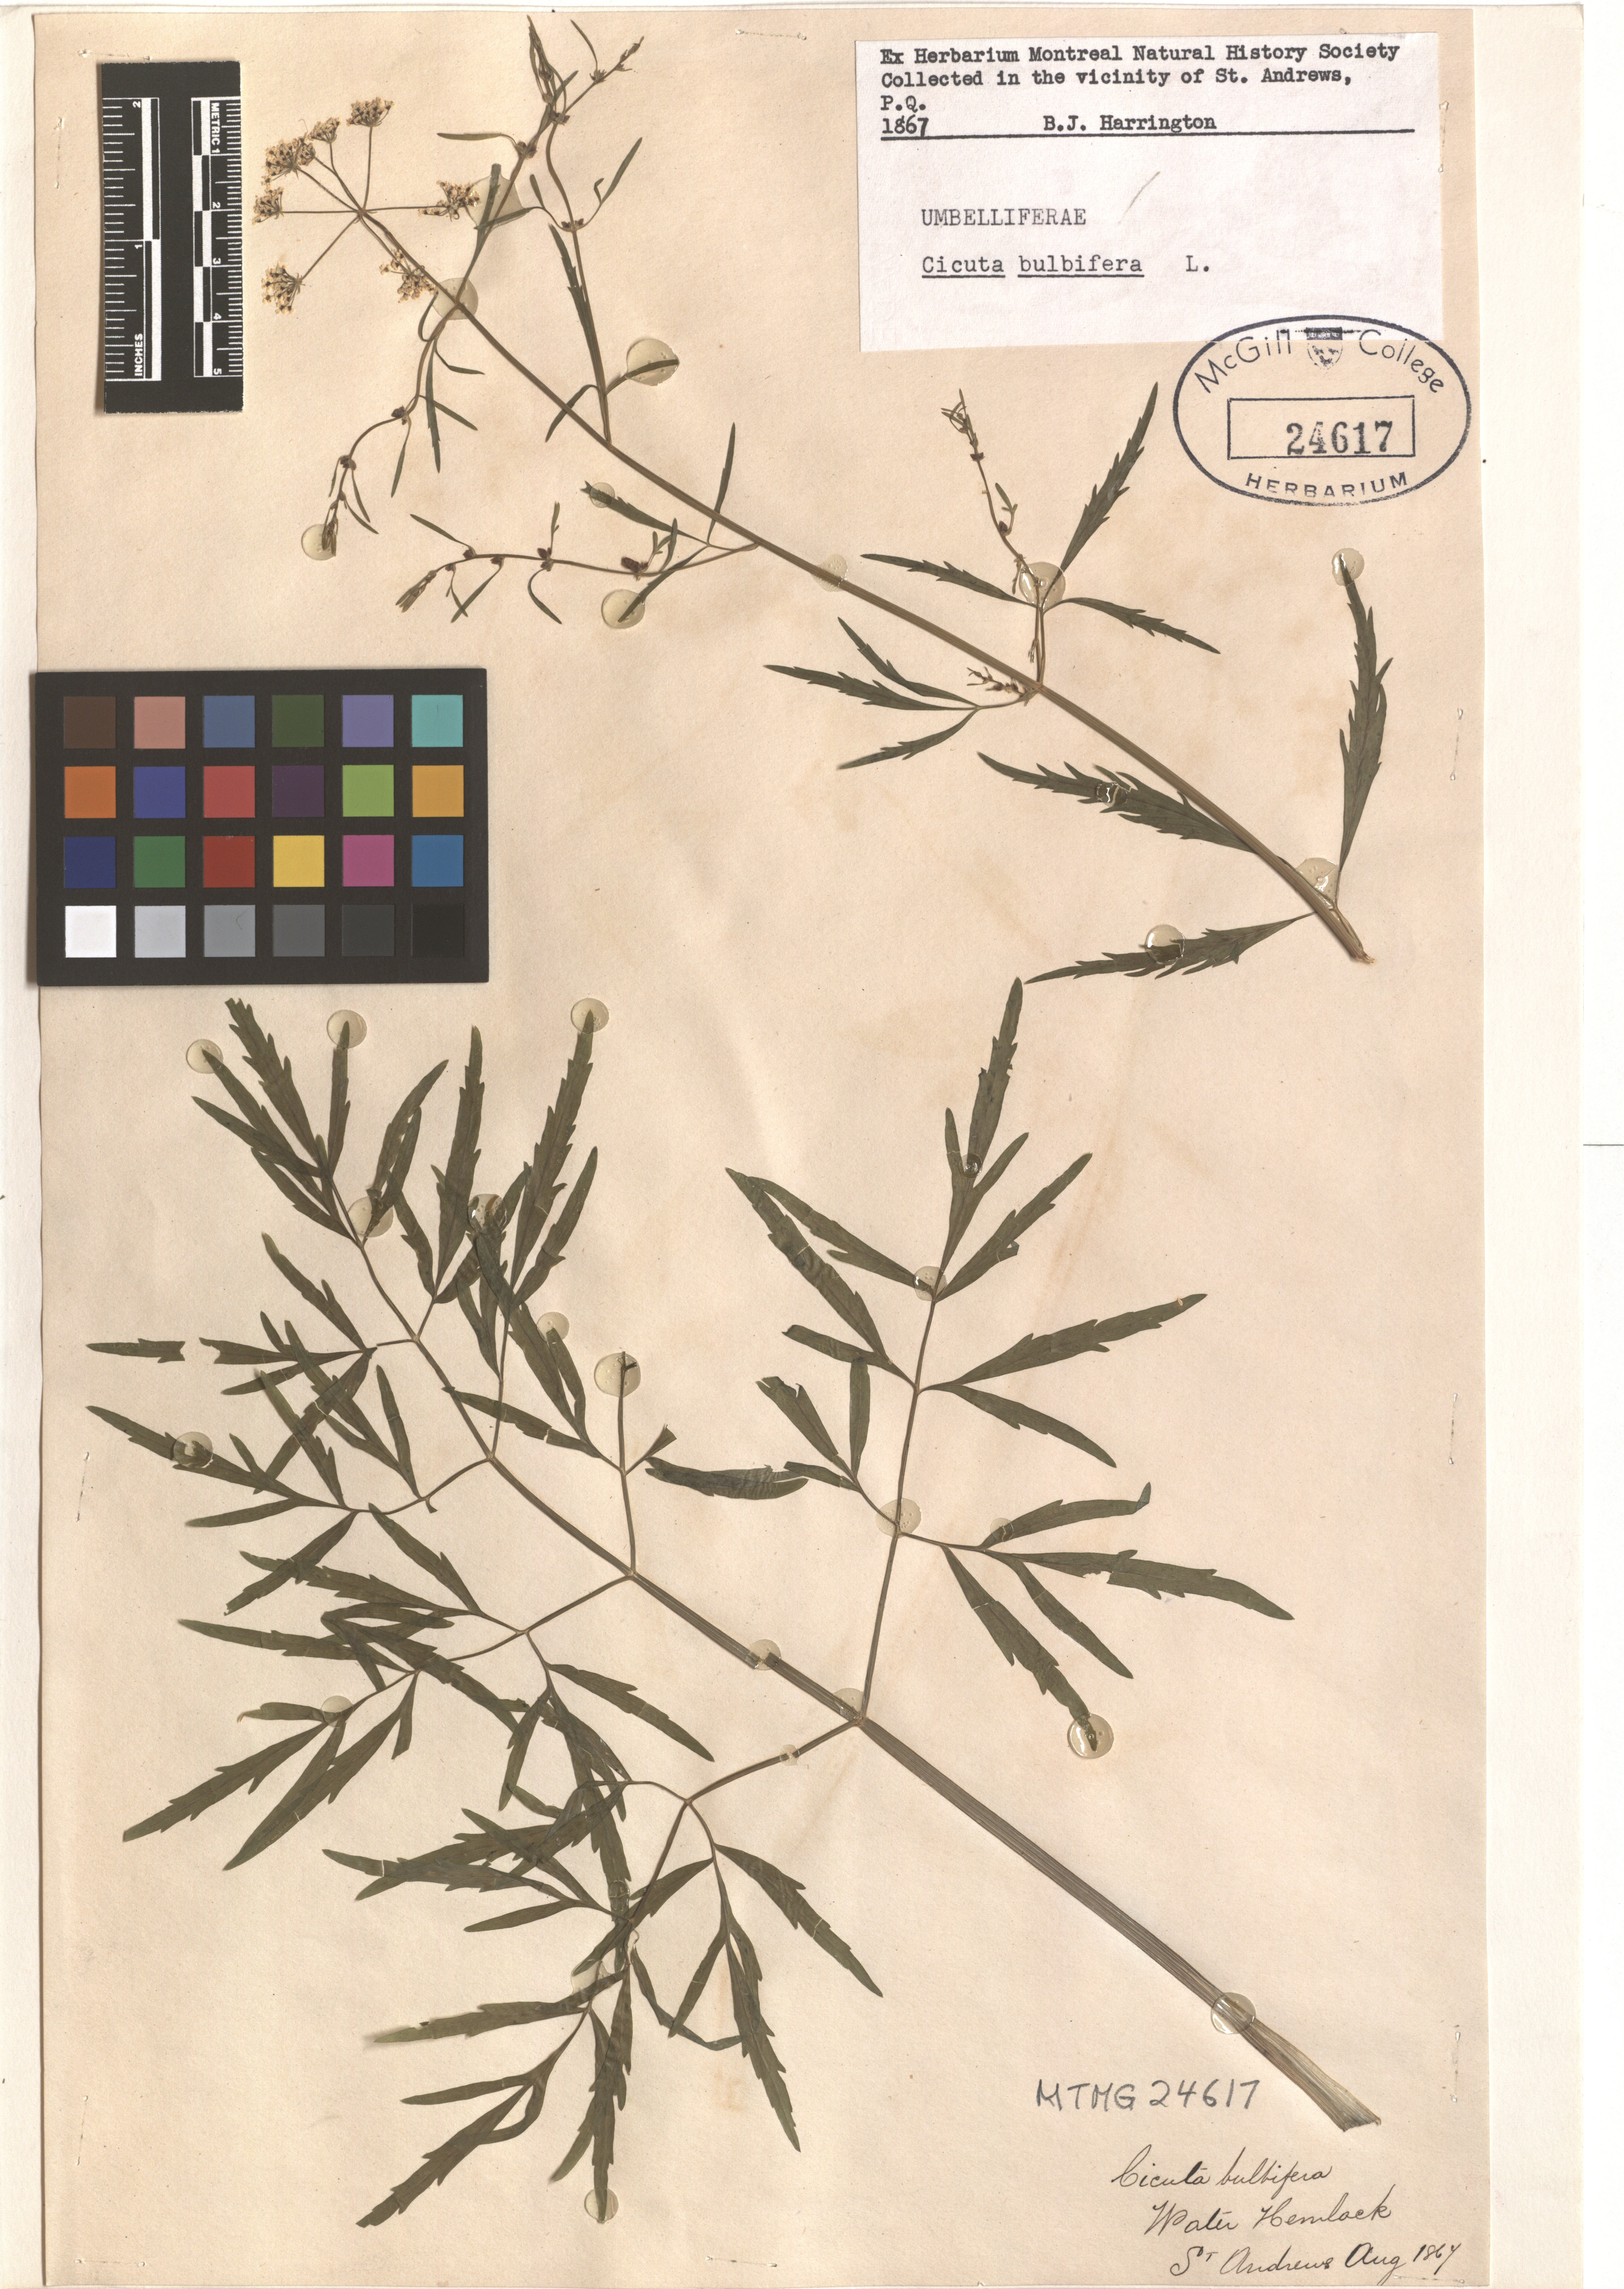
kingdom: Plantae
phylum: Tracheophyta
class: Magnoliopsida
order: Apiales
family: Apiaceae
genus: Cicuta
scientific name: Cicuta bulbifera
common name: Bulb-bearing water-hemlock
